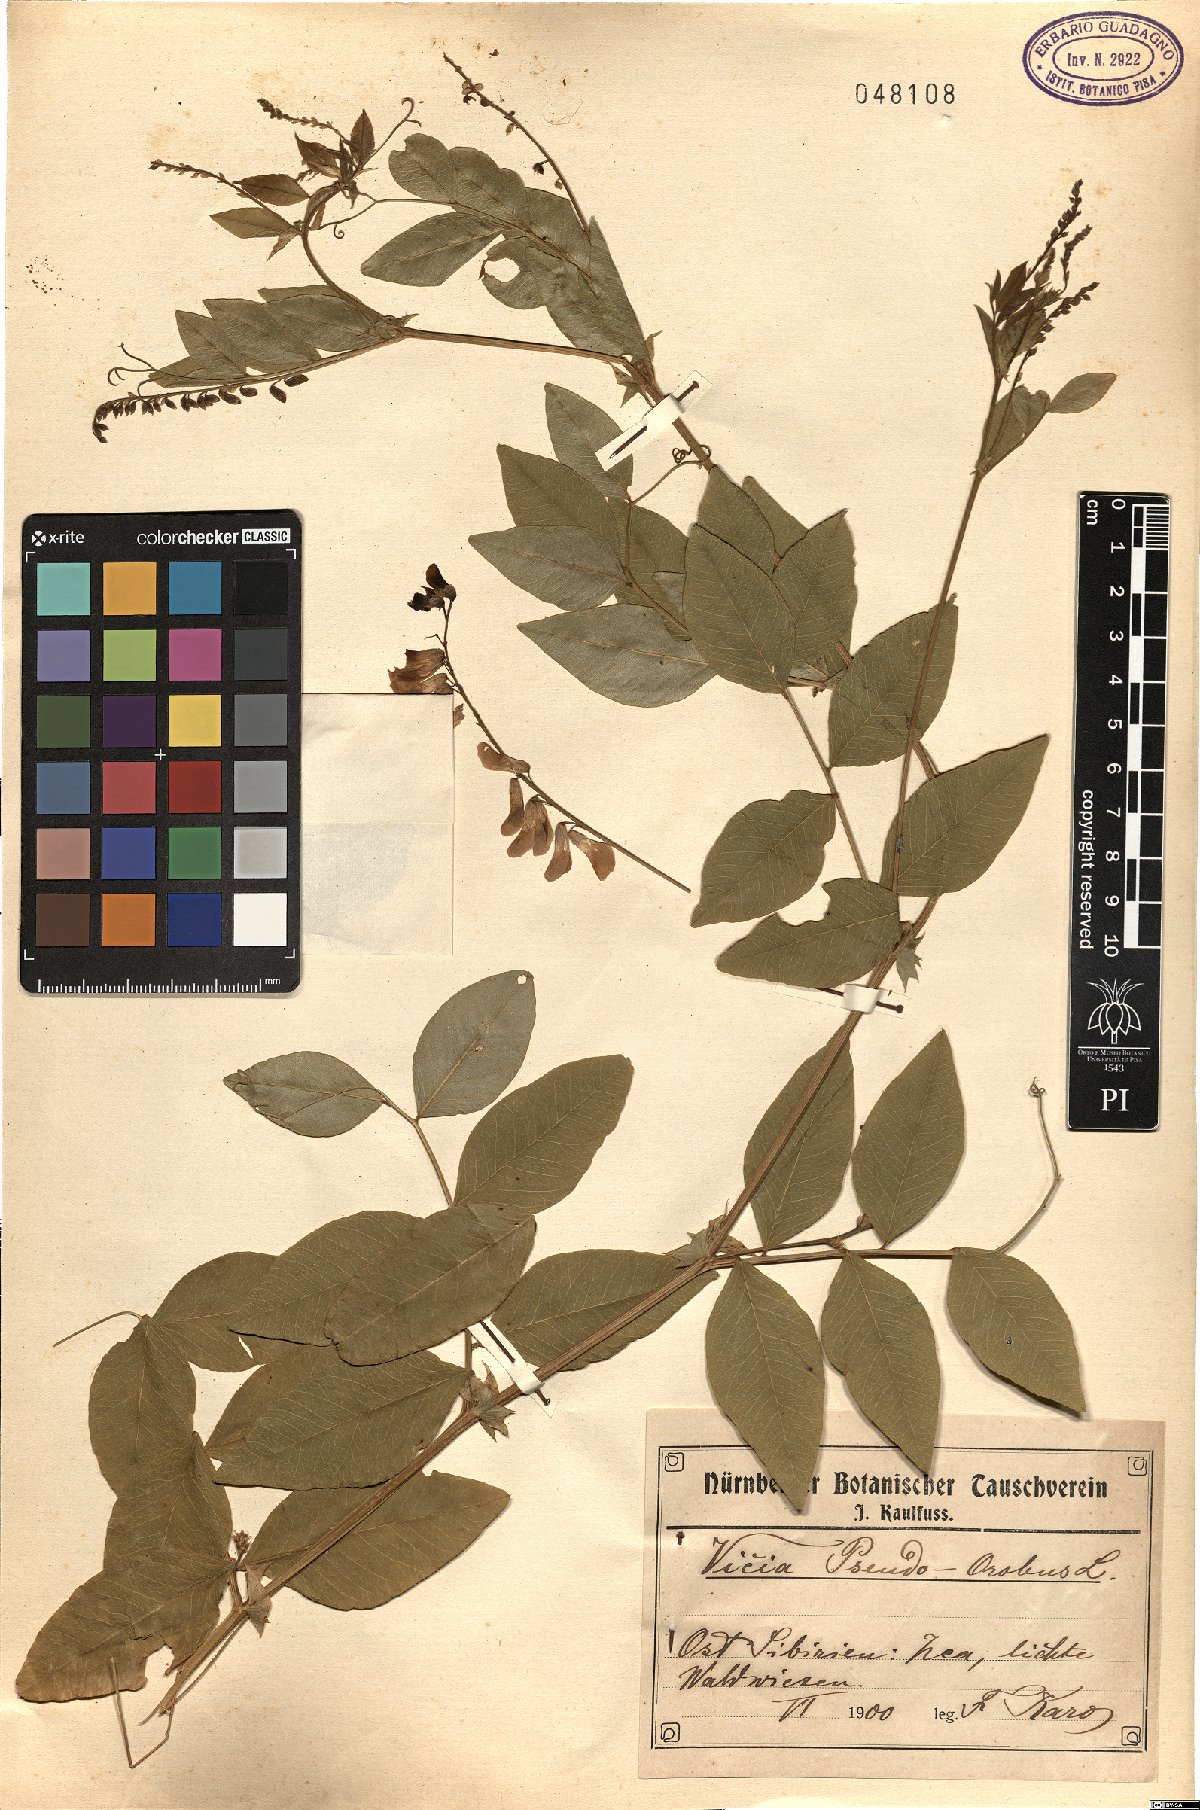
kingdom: Plantae
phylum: Tracheophyta
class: Magnoliopsida
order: Fabales
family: Fabaceae
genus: Vicia
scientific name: Vicia pseudo-orobus
